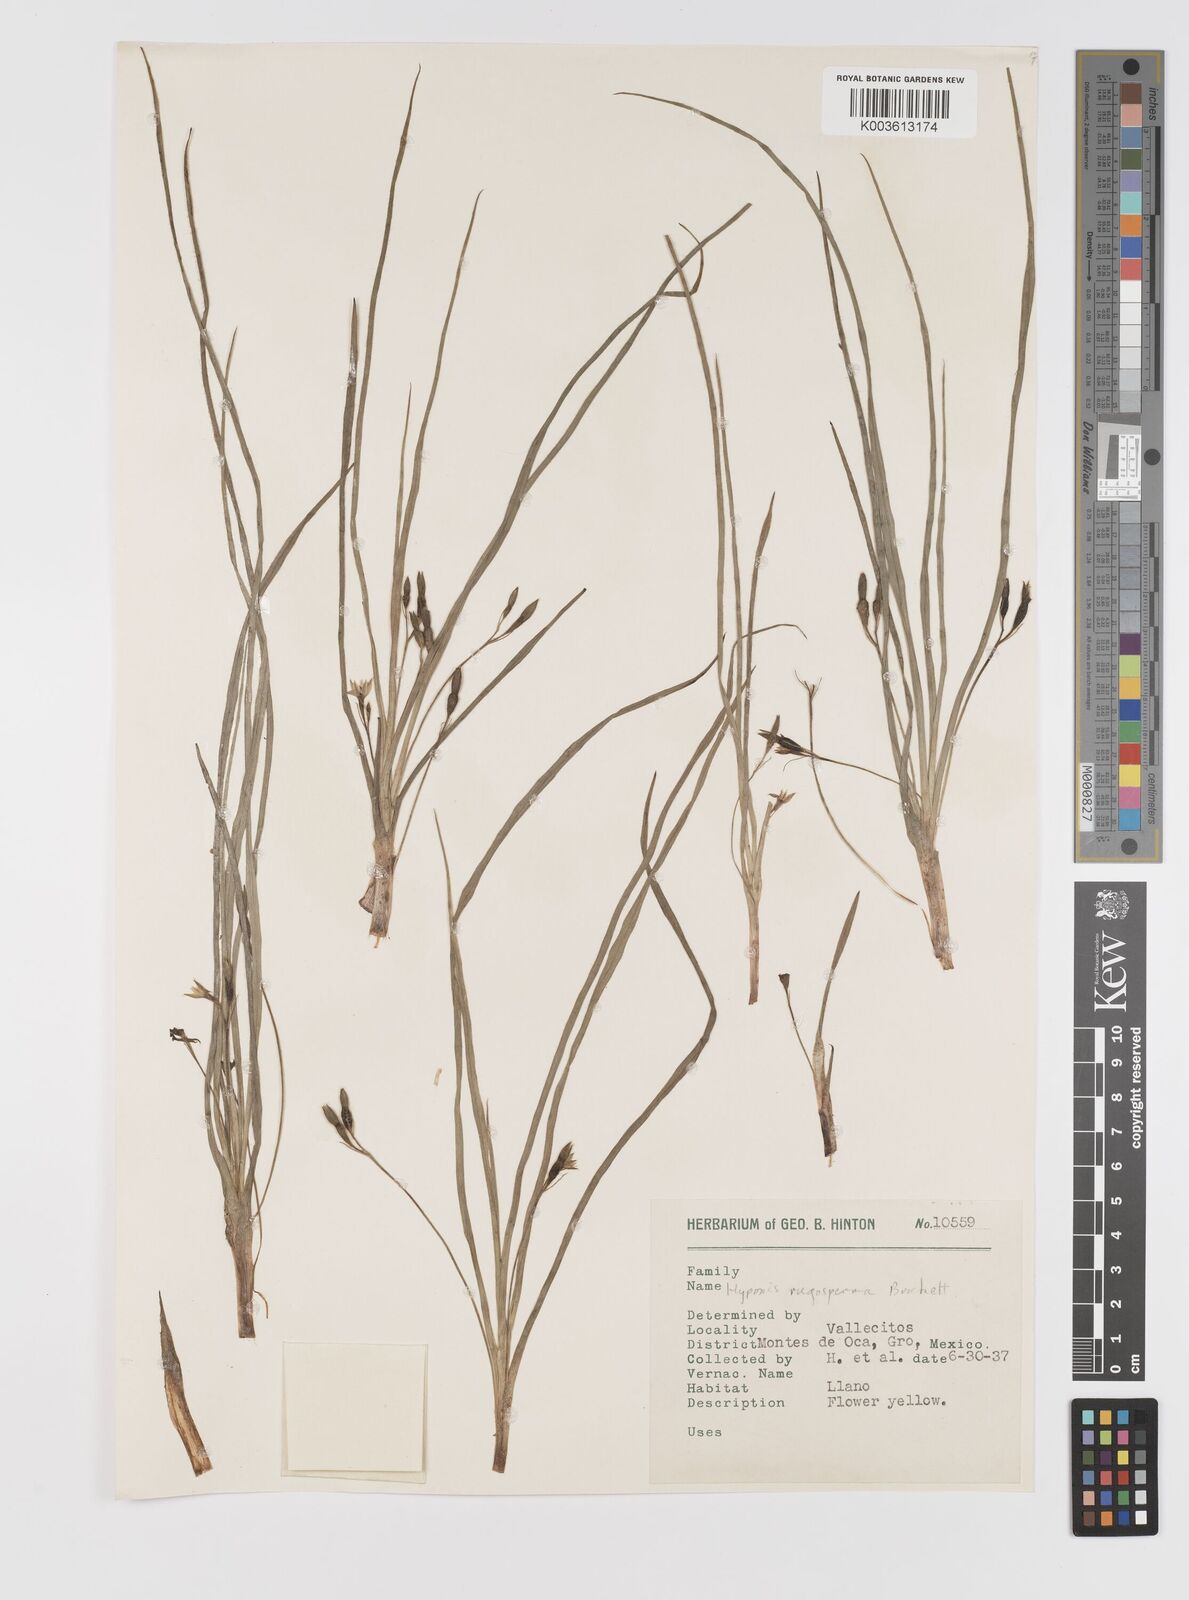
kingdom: Plantae
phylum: Tracheophyta
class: Liliopsida
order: Asparagales
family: Hypoxidaceae
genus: Hypoxis
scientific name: Hypoxis humilis
